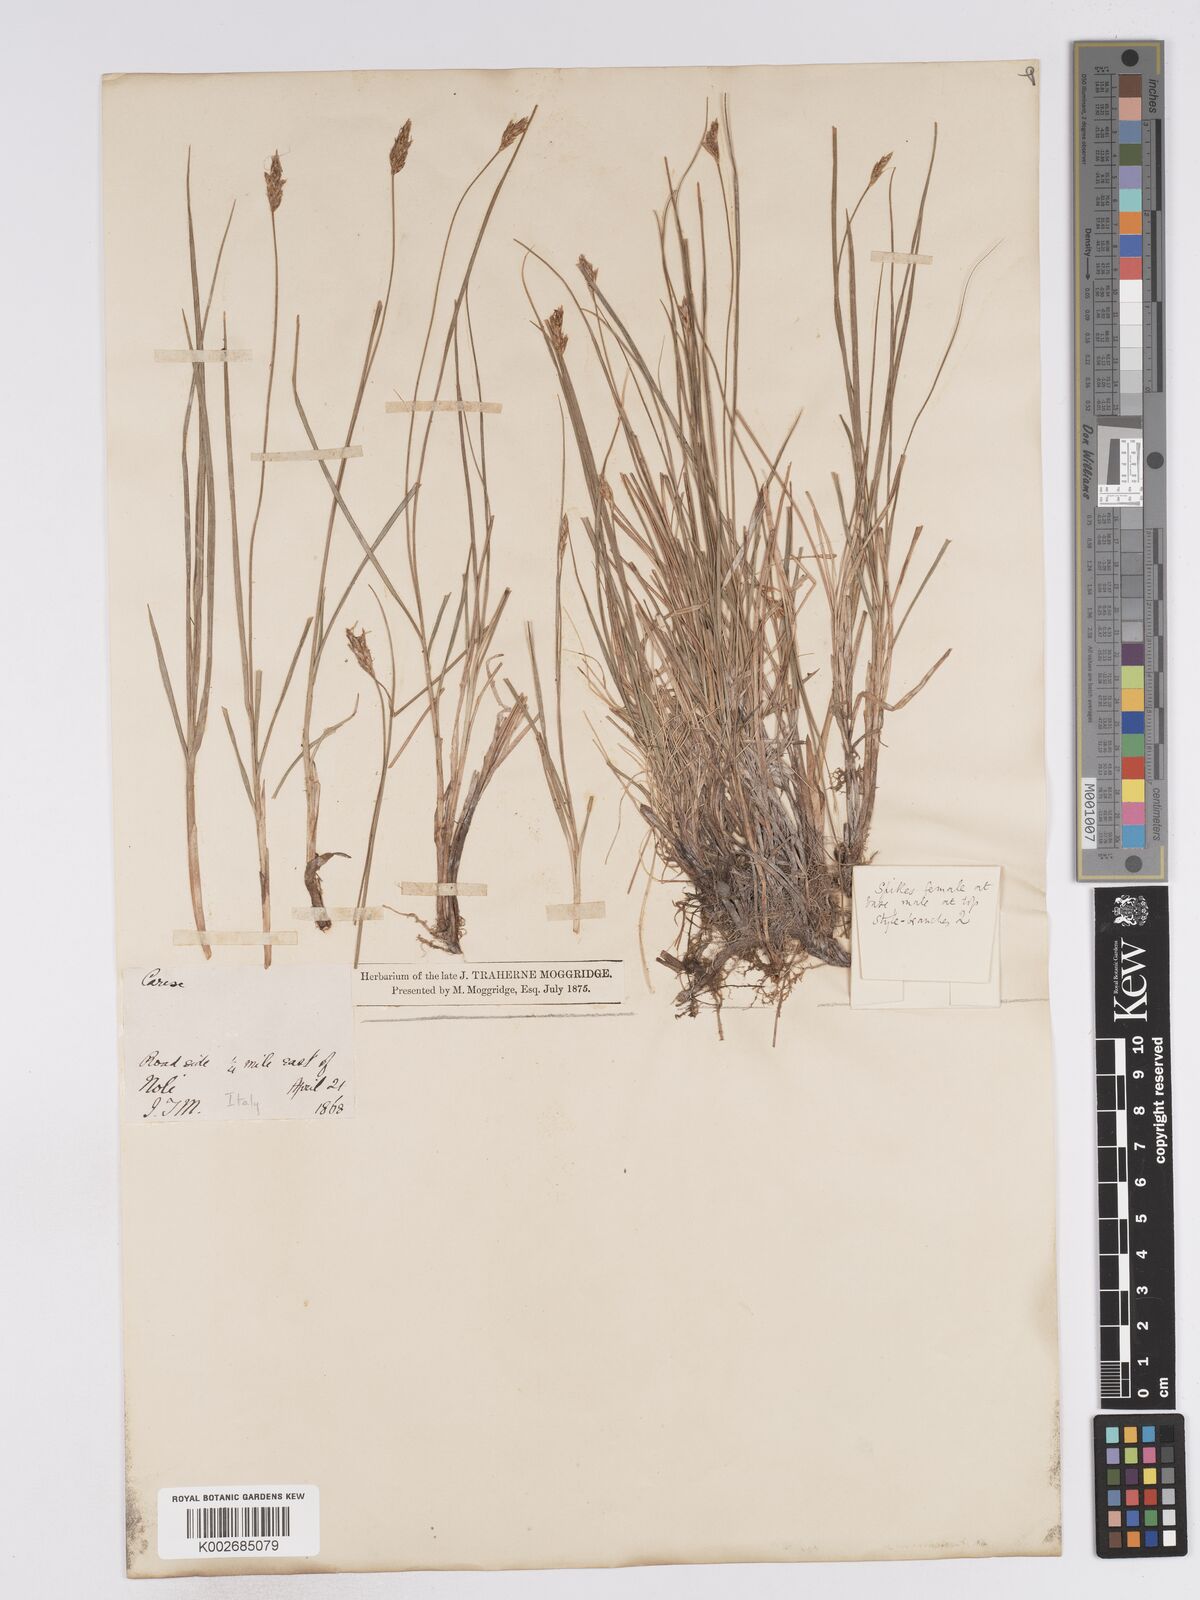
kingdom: Plantae
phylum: Tracheophyta
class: Liliopsida
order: Poales
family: Cyperaceae
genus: Carex
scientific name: Carex brunnescens
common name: Brown sedge
